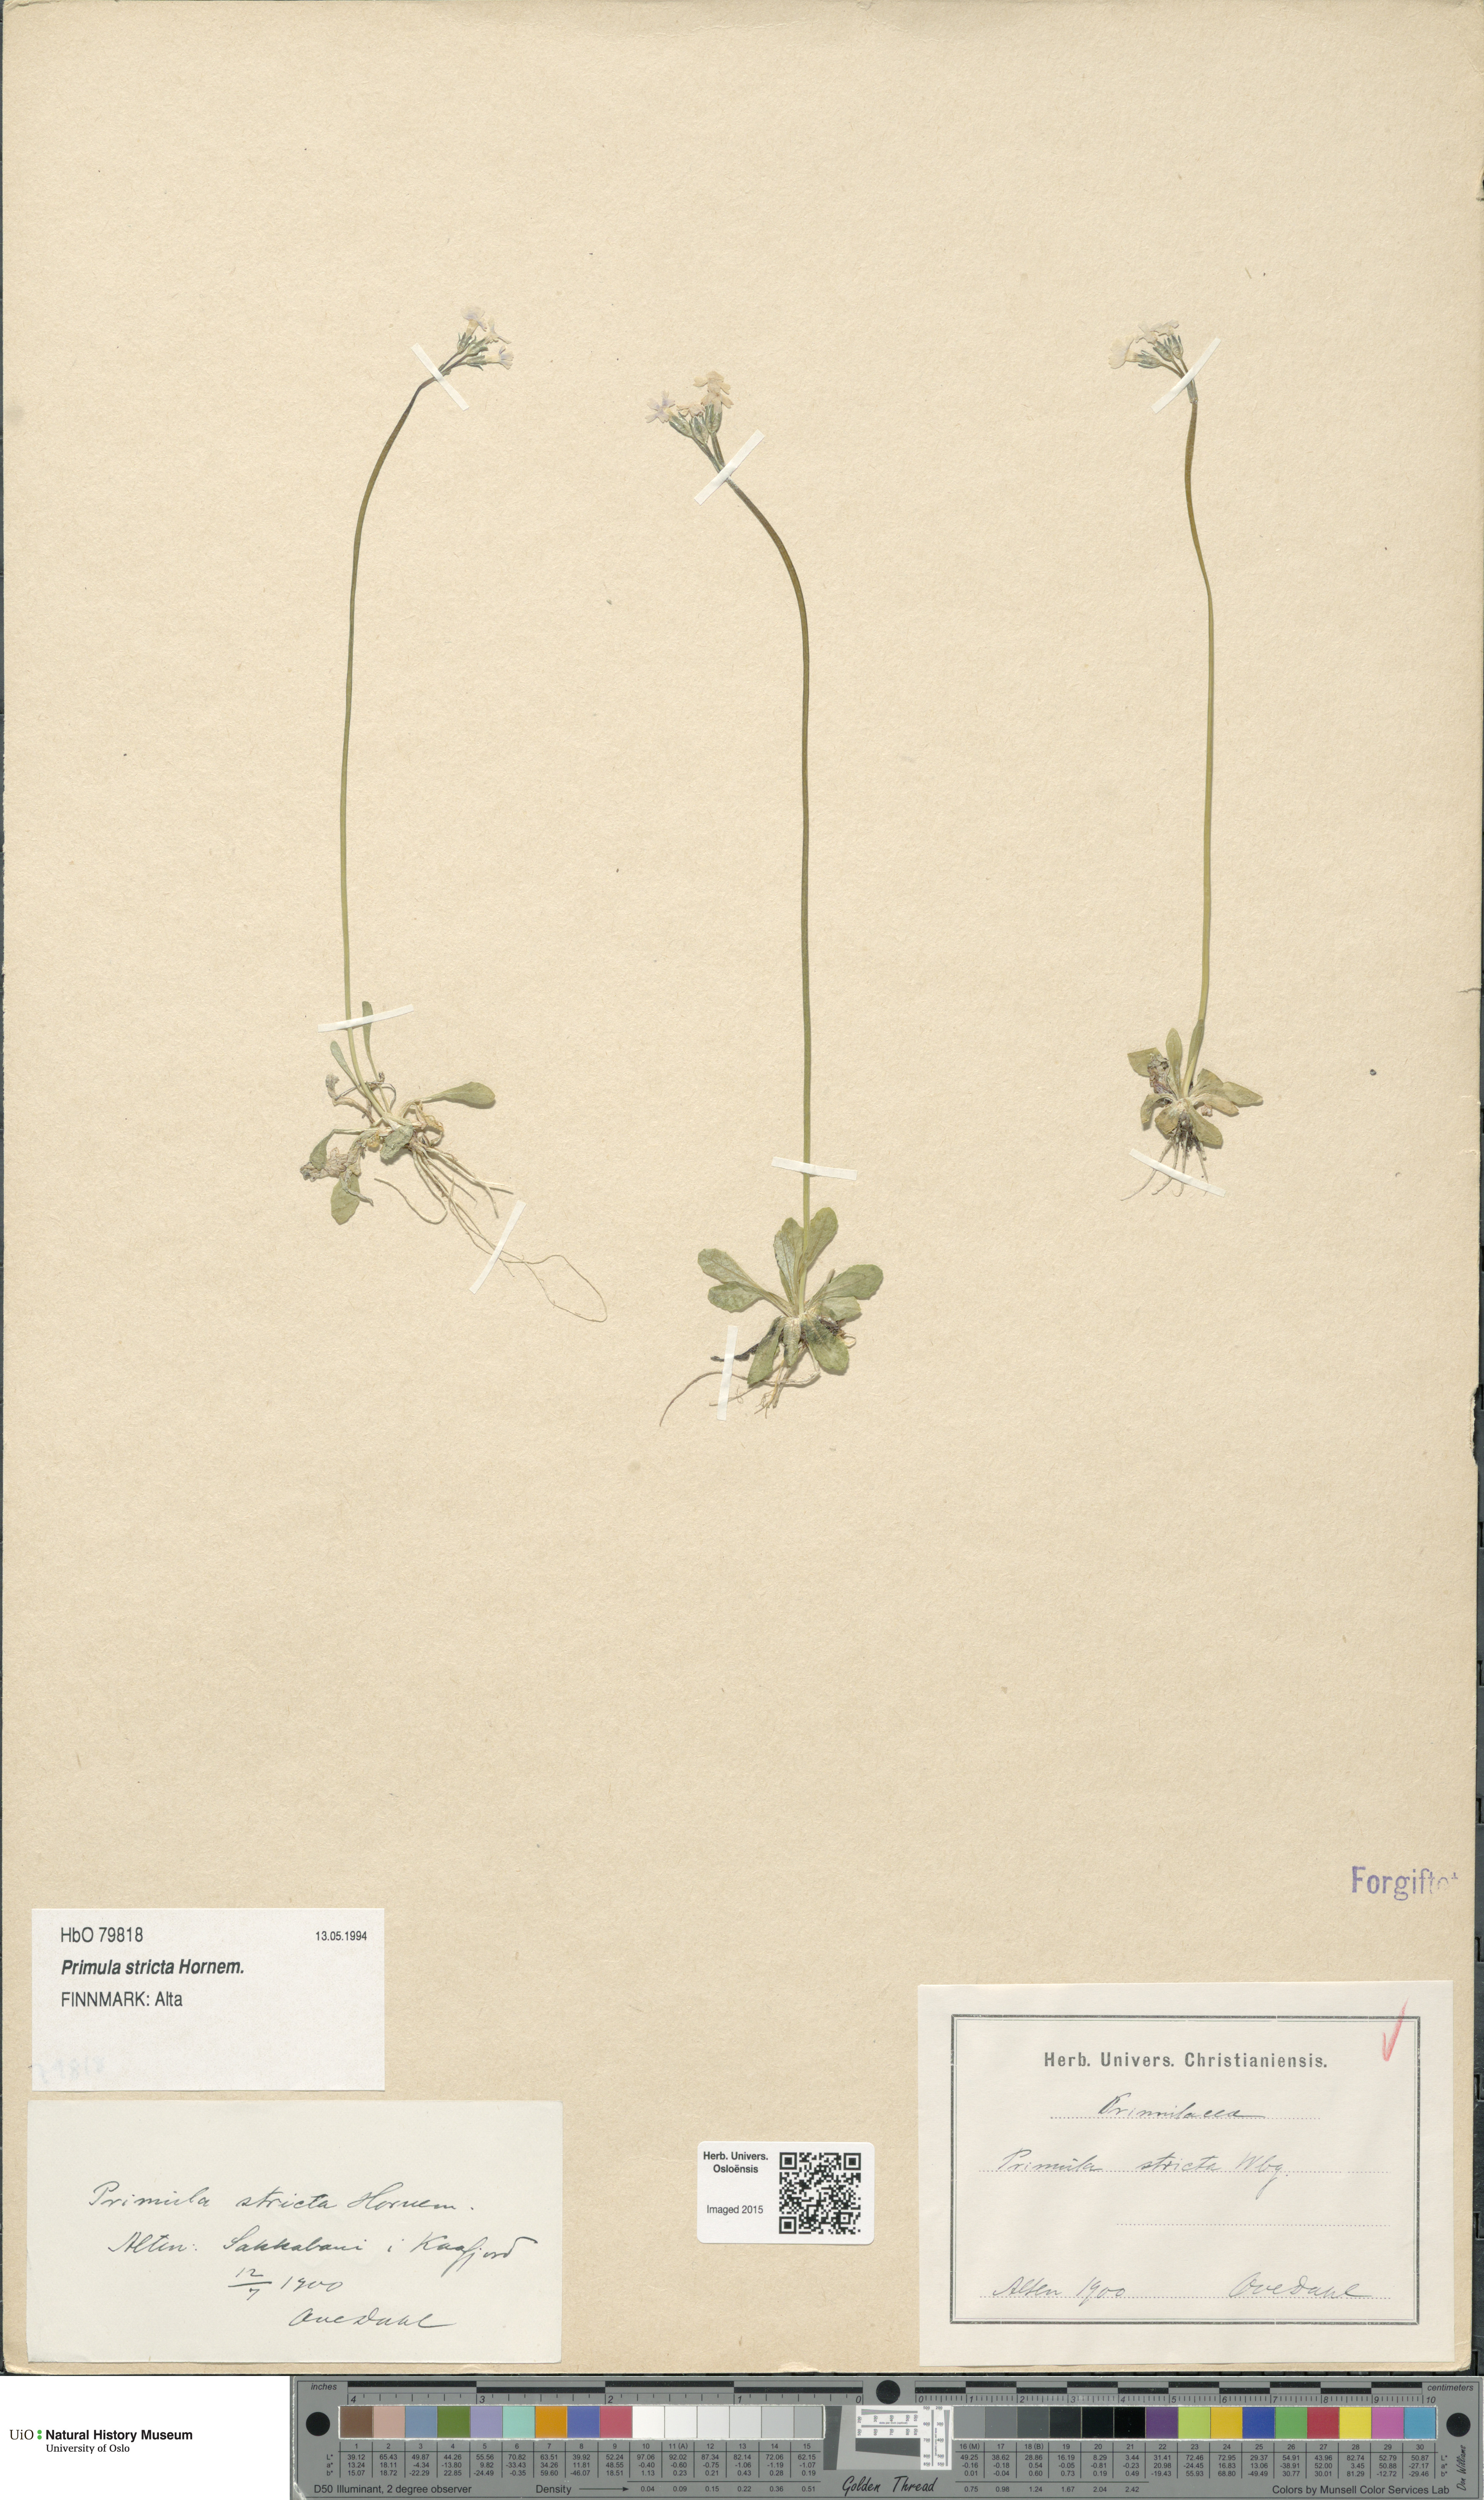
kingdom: Plantae
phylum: Tracheophyta
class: Magnoliopsida
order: Ericales
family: Primulaceae
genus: Primula
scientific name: Primula stricta
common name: Coastal primrose
